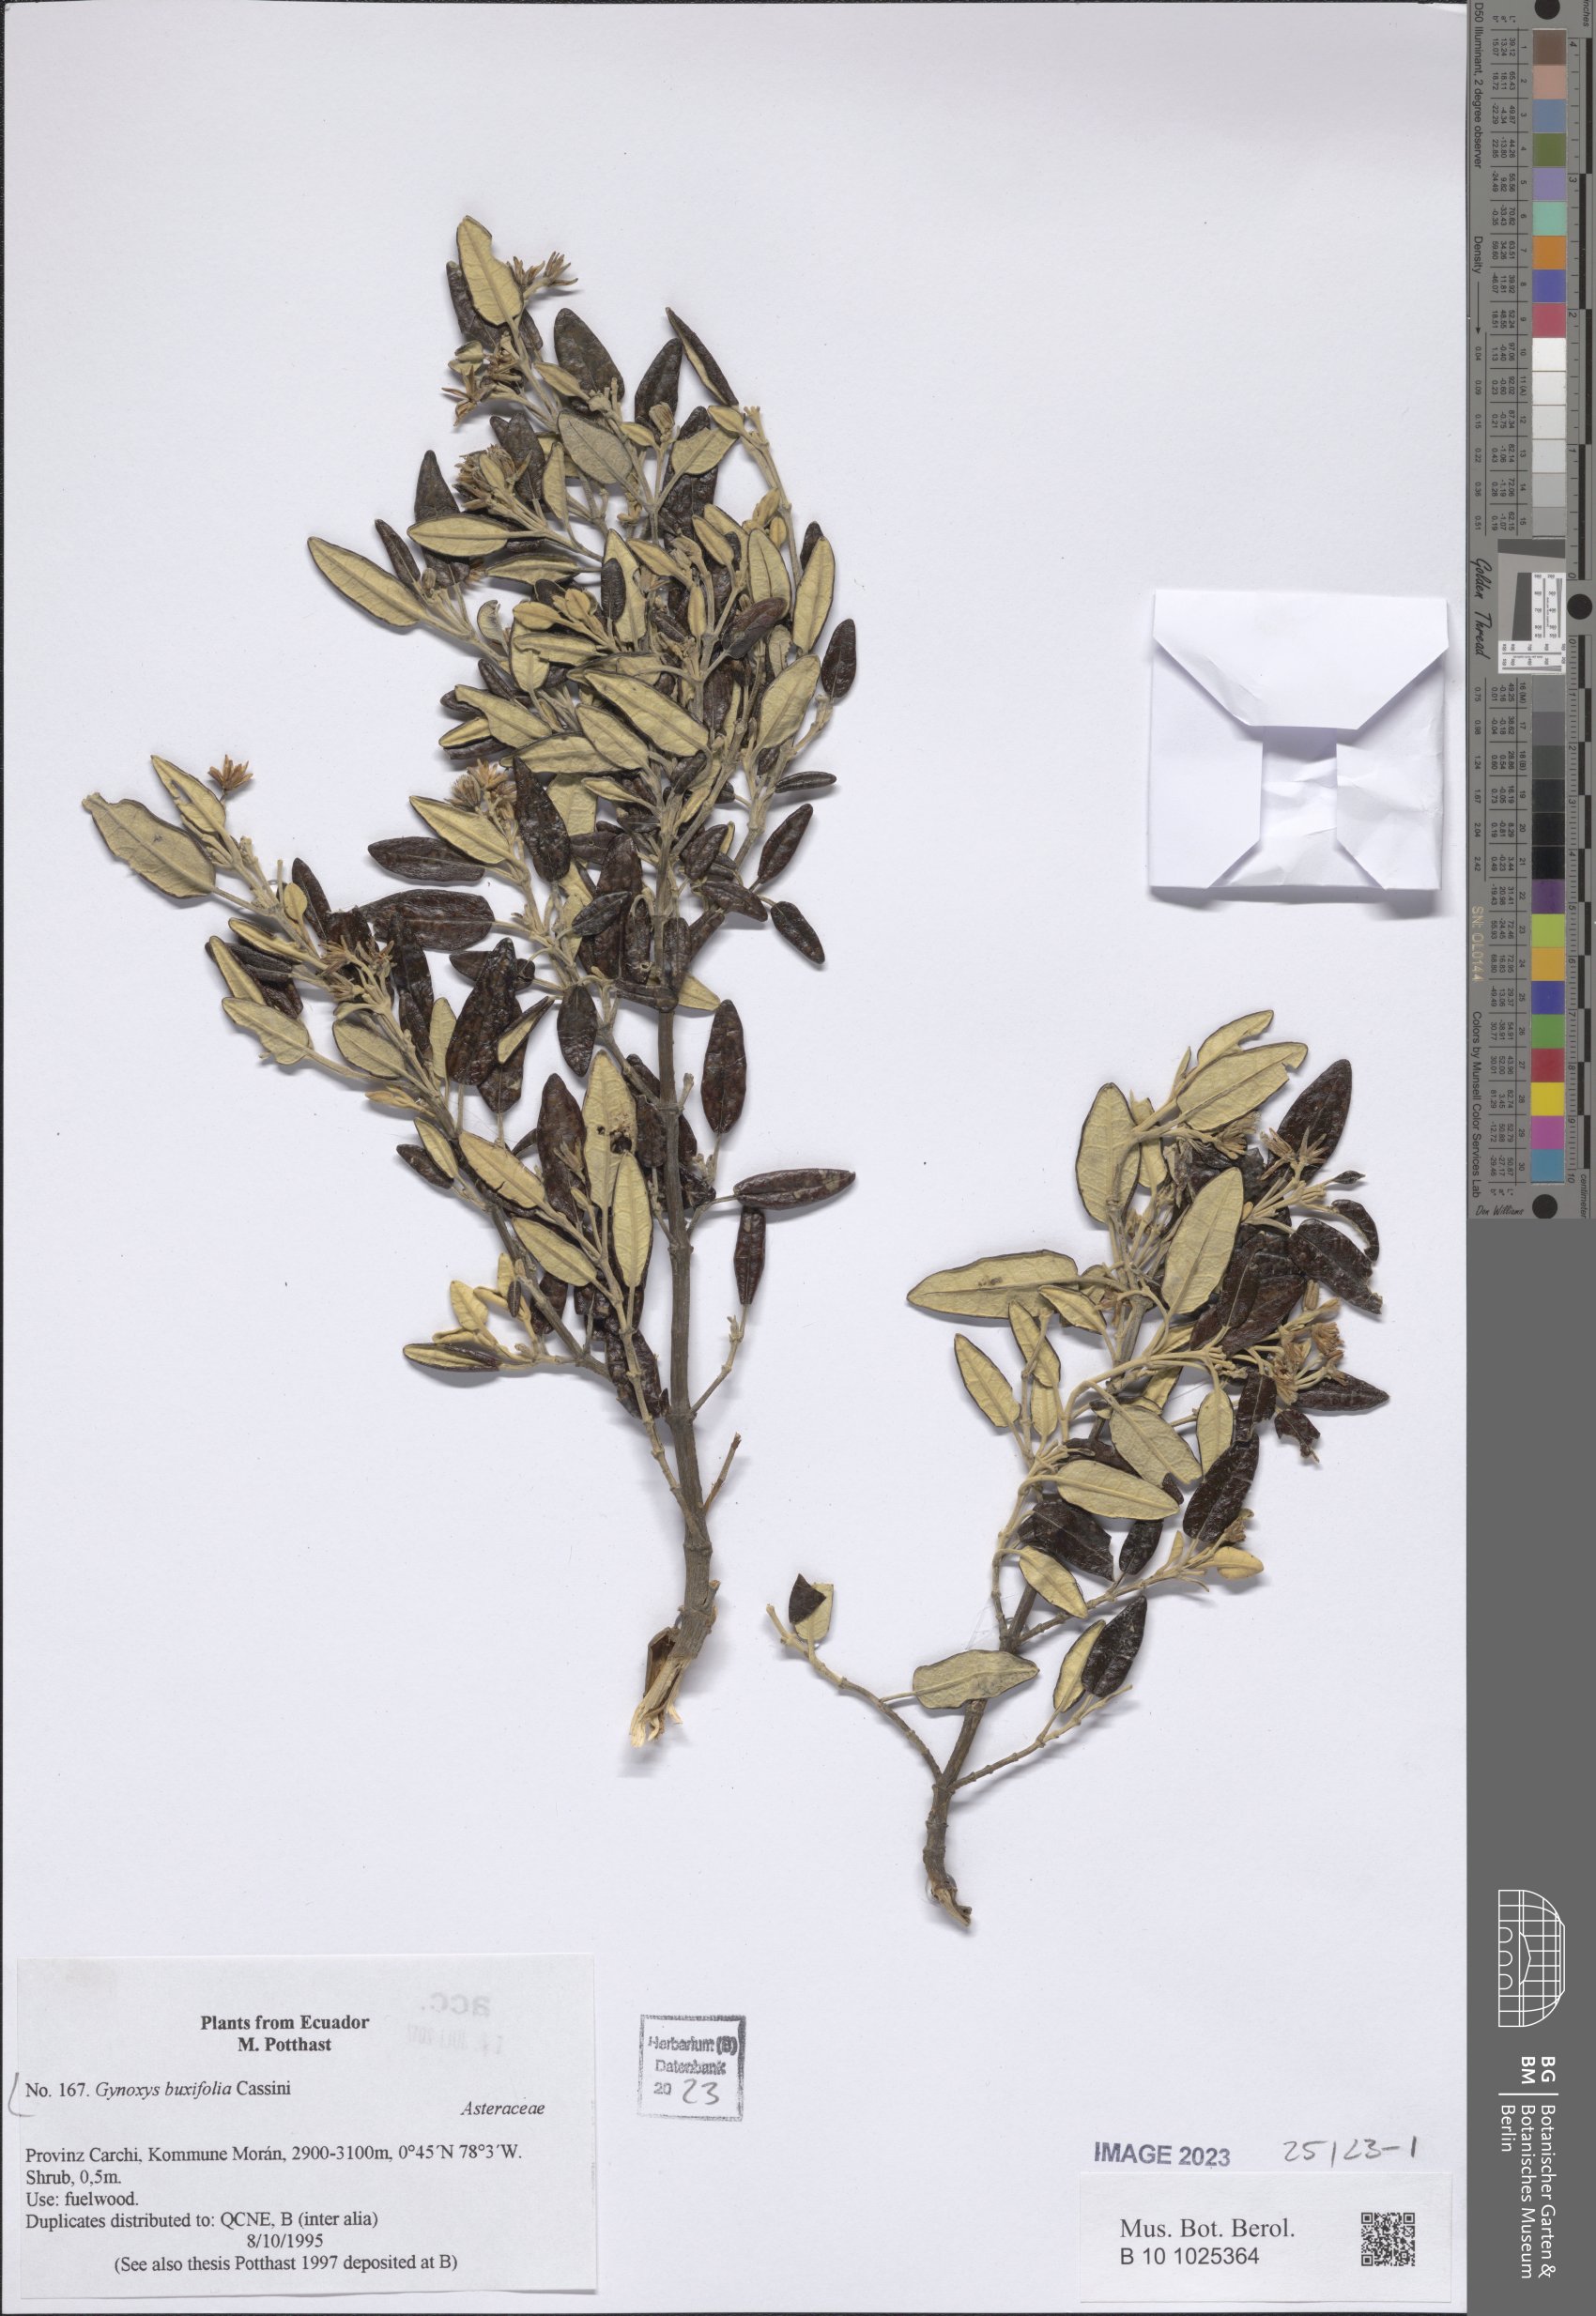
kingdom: Plantae
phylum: Tracheophyta
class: Magnoliopsida
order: Asterales
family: Asteraceae
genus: Gynoxys
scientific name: Gynoxys buxifolia
